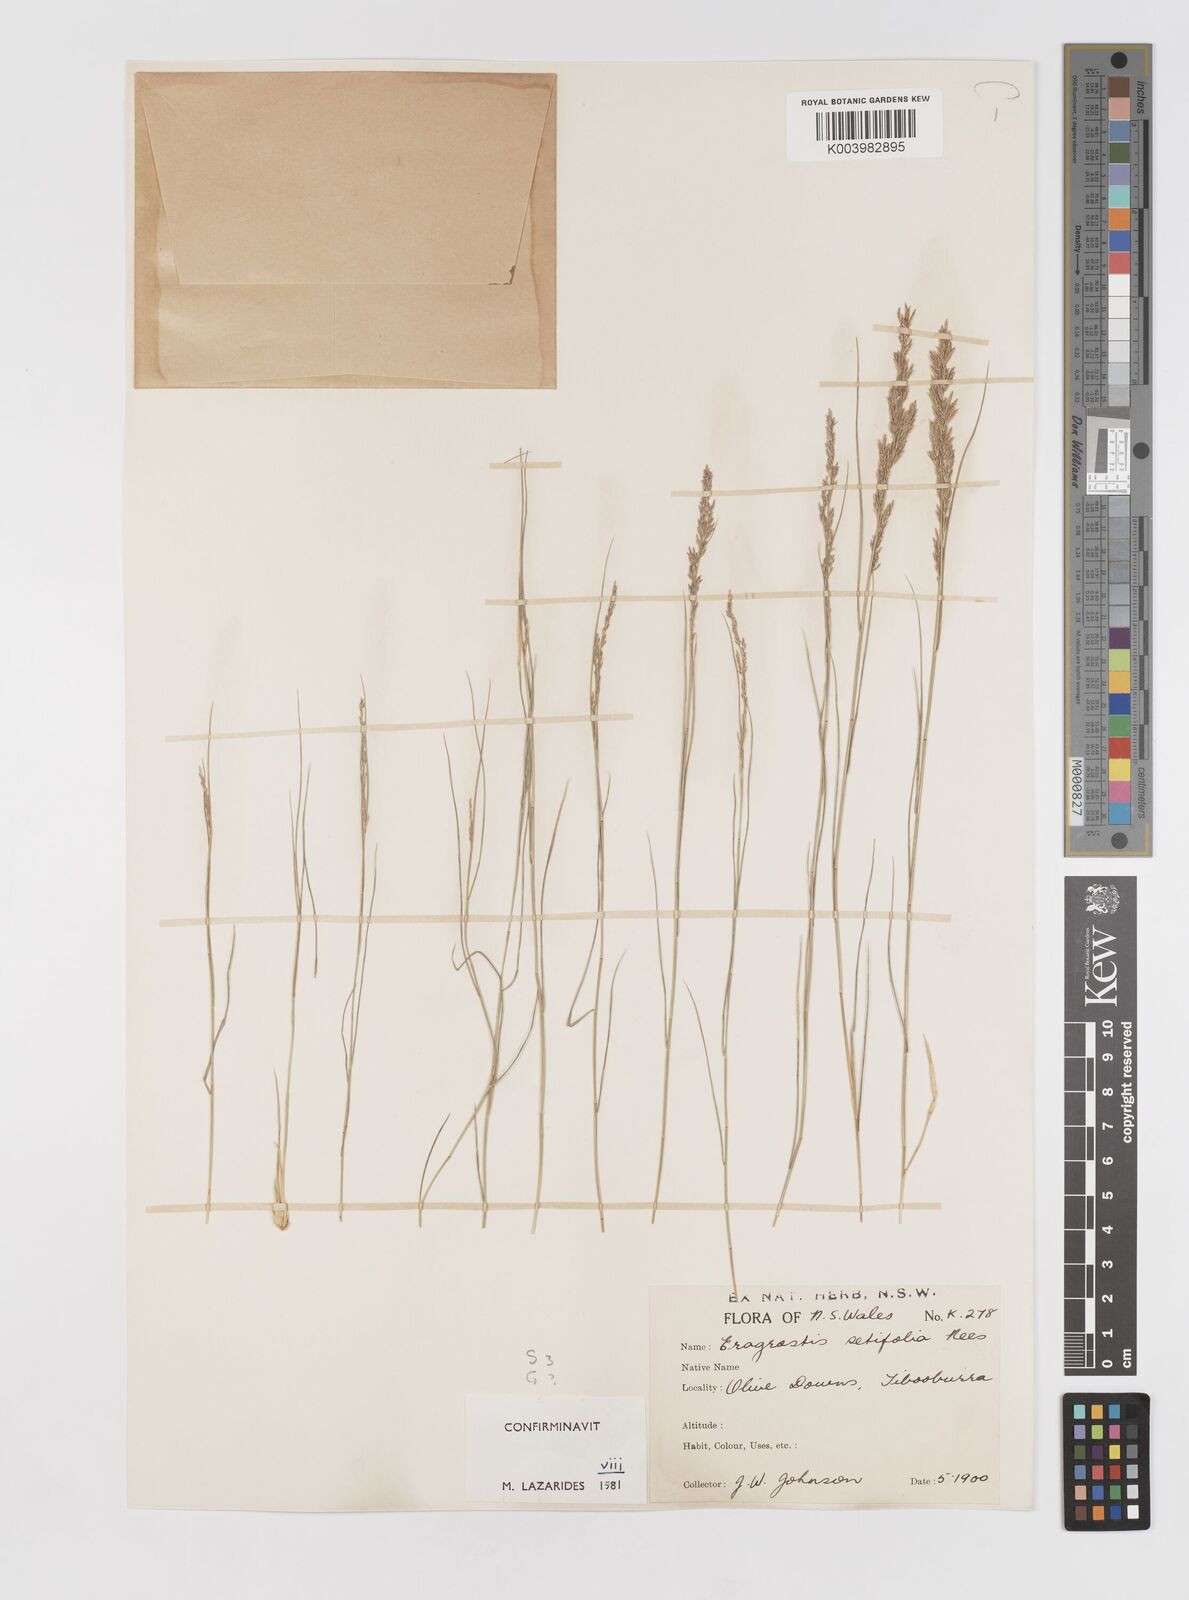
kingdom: Plantae
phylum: Tracheophyta
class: Liliopsida
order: Poales
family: Poaceae
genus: Eragrostis
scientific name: Eragrostis setifolia
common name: Bristleleaf lovegrass
